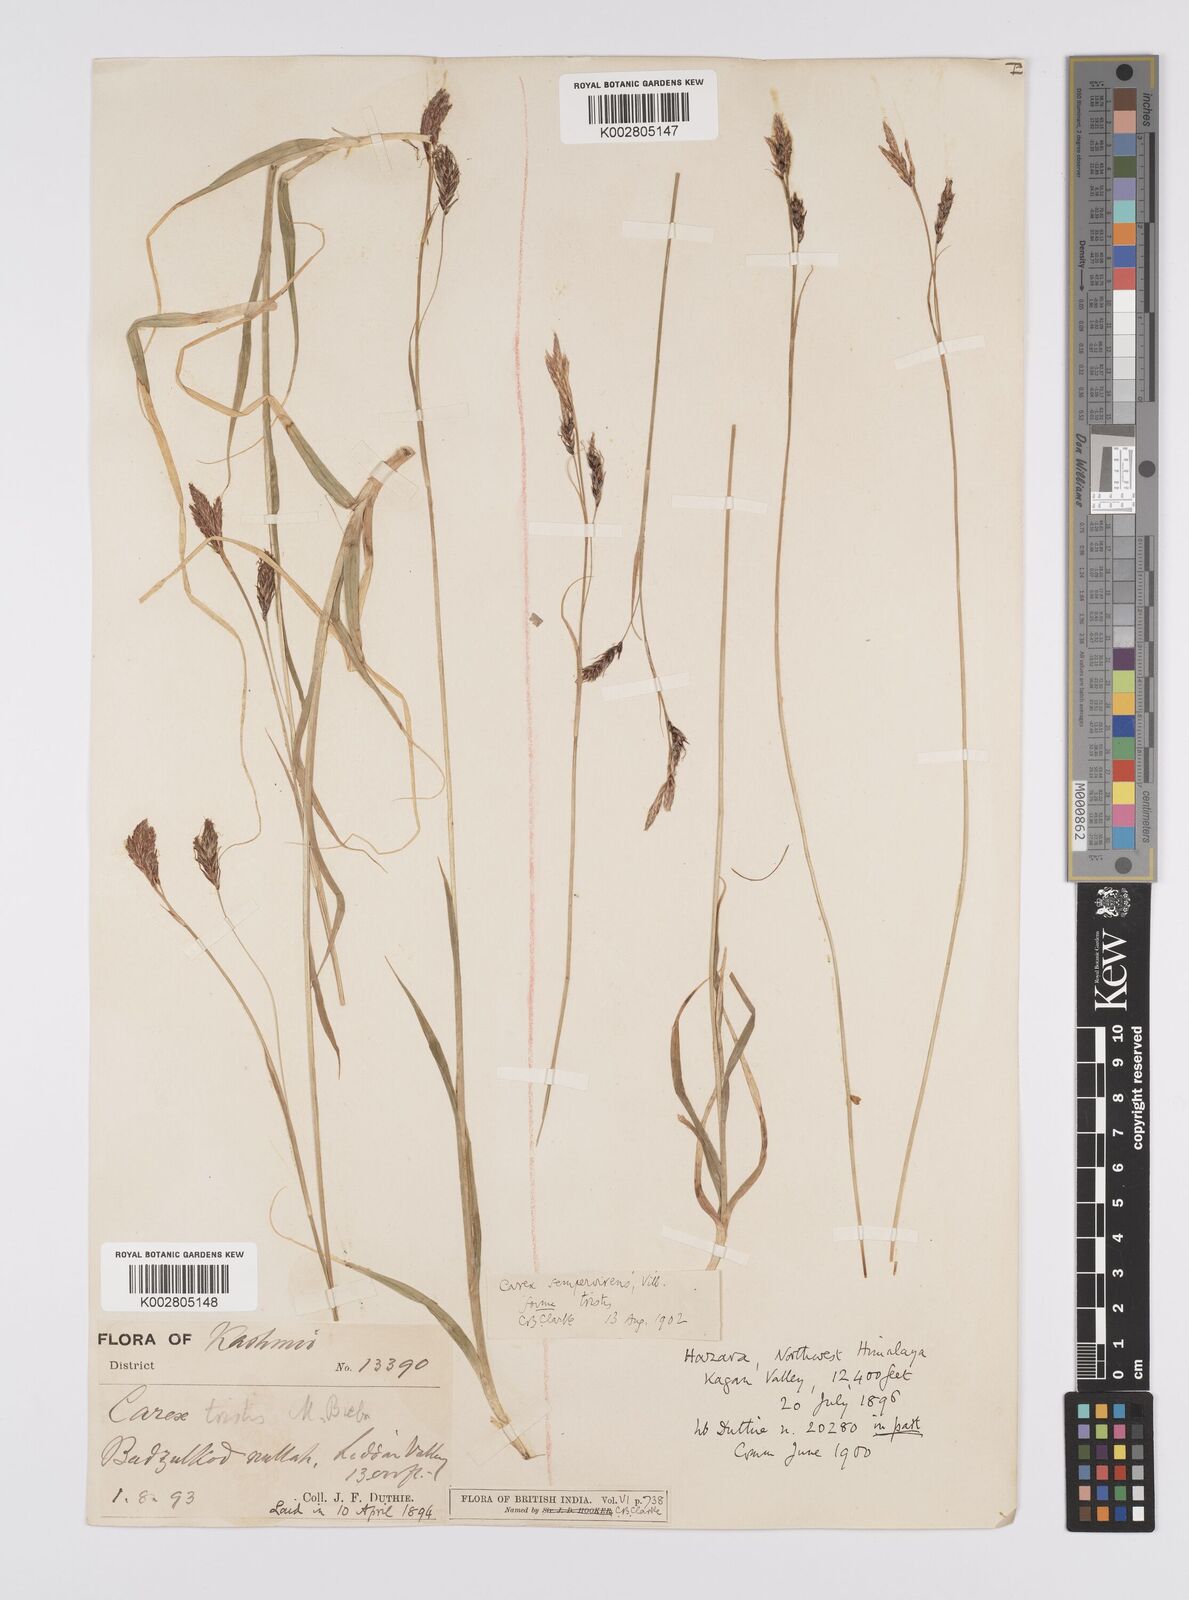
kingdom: Plantae
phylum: Tracheophyta
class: Liliopsida
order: Poales
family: Cyperaceae
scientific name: Cyperaceae
